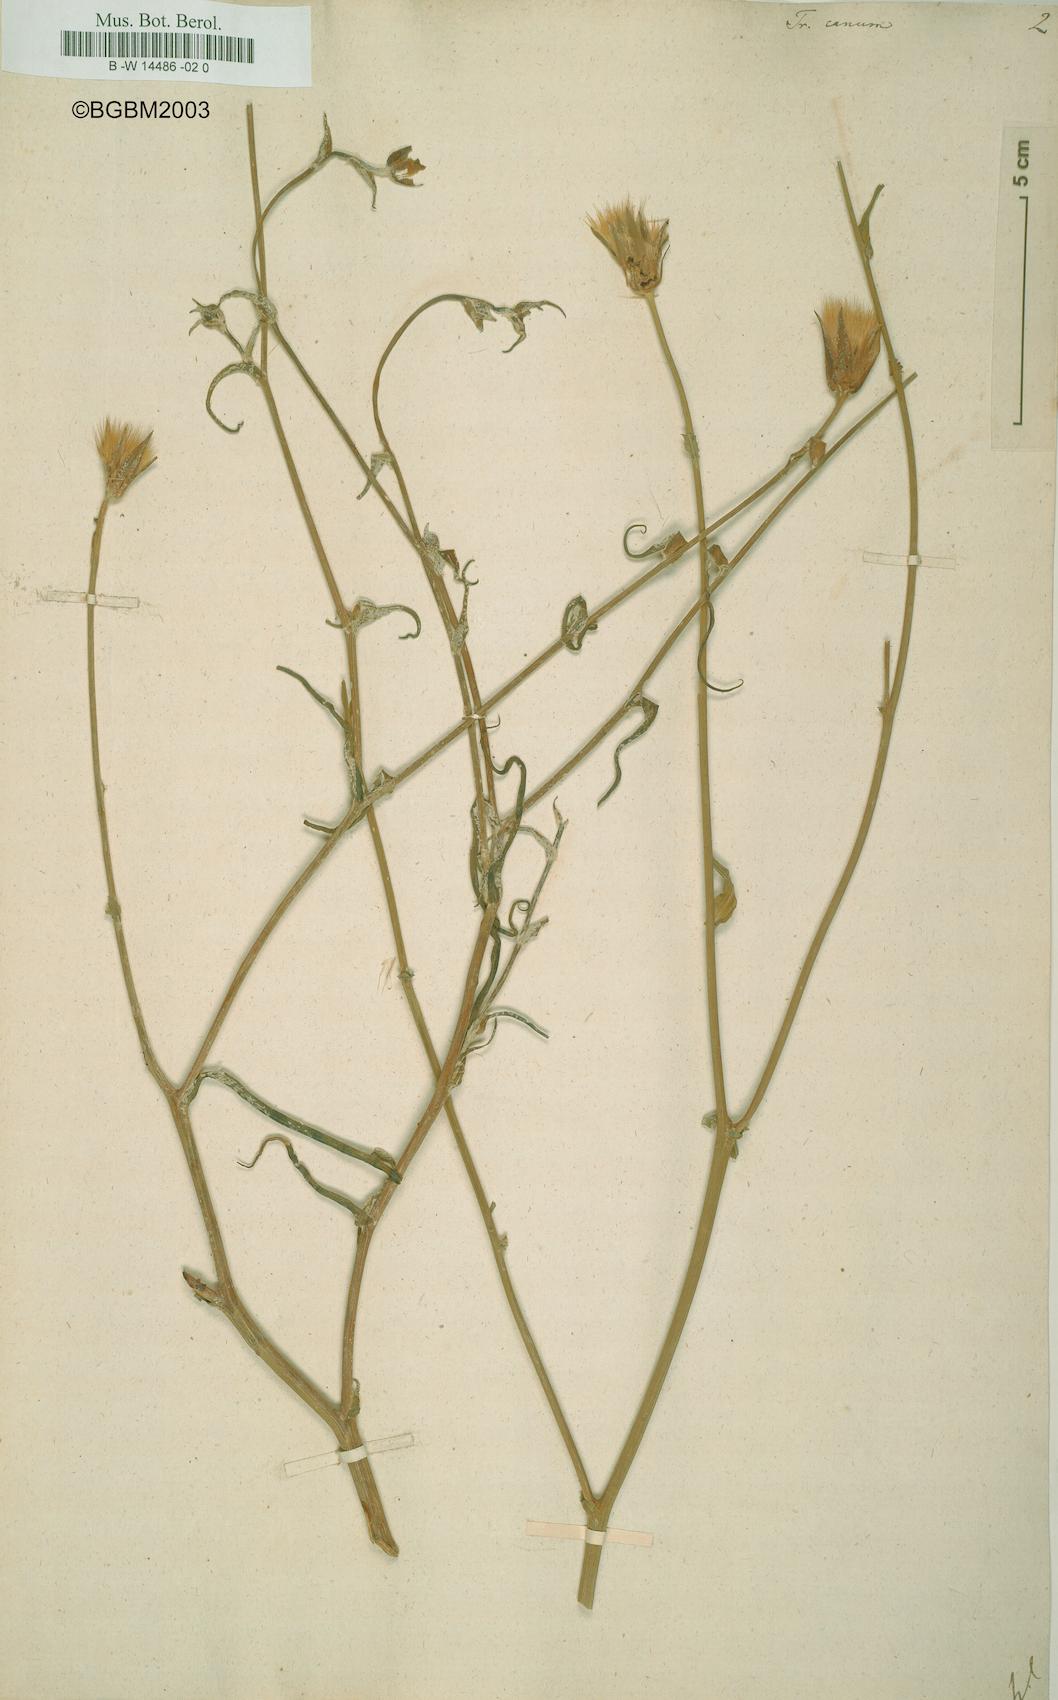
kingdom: Plantae
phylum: Tracheophyta
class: Magnoliopsida
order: Asterales
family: Asteraceae
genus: Tragopogon
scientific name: Tragopogon floccosus
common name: Woolly goatsbeard
